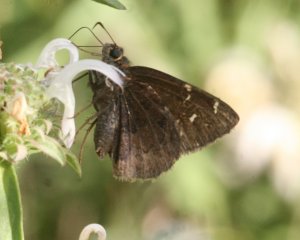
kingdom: Animalia
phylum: Arthropoda
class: Insecta
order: Lepidoptera
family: Hesperiidae
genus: Autochton
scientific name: Autochton
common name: Northern Cloudywing
